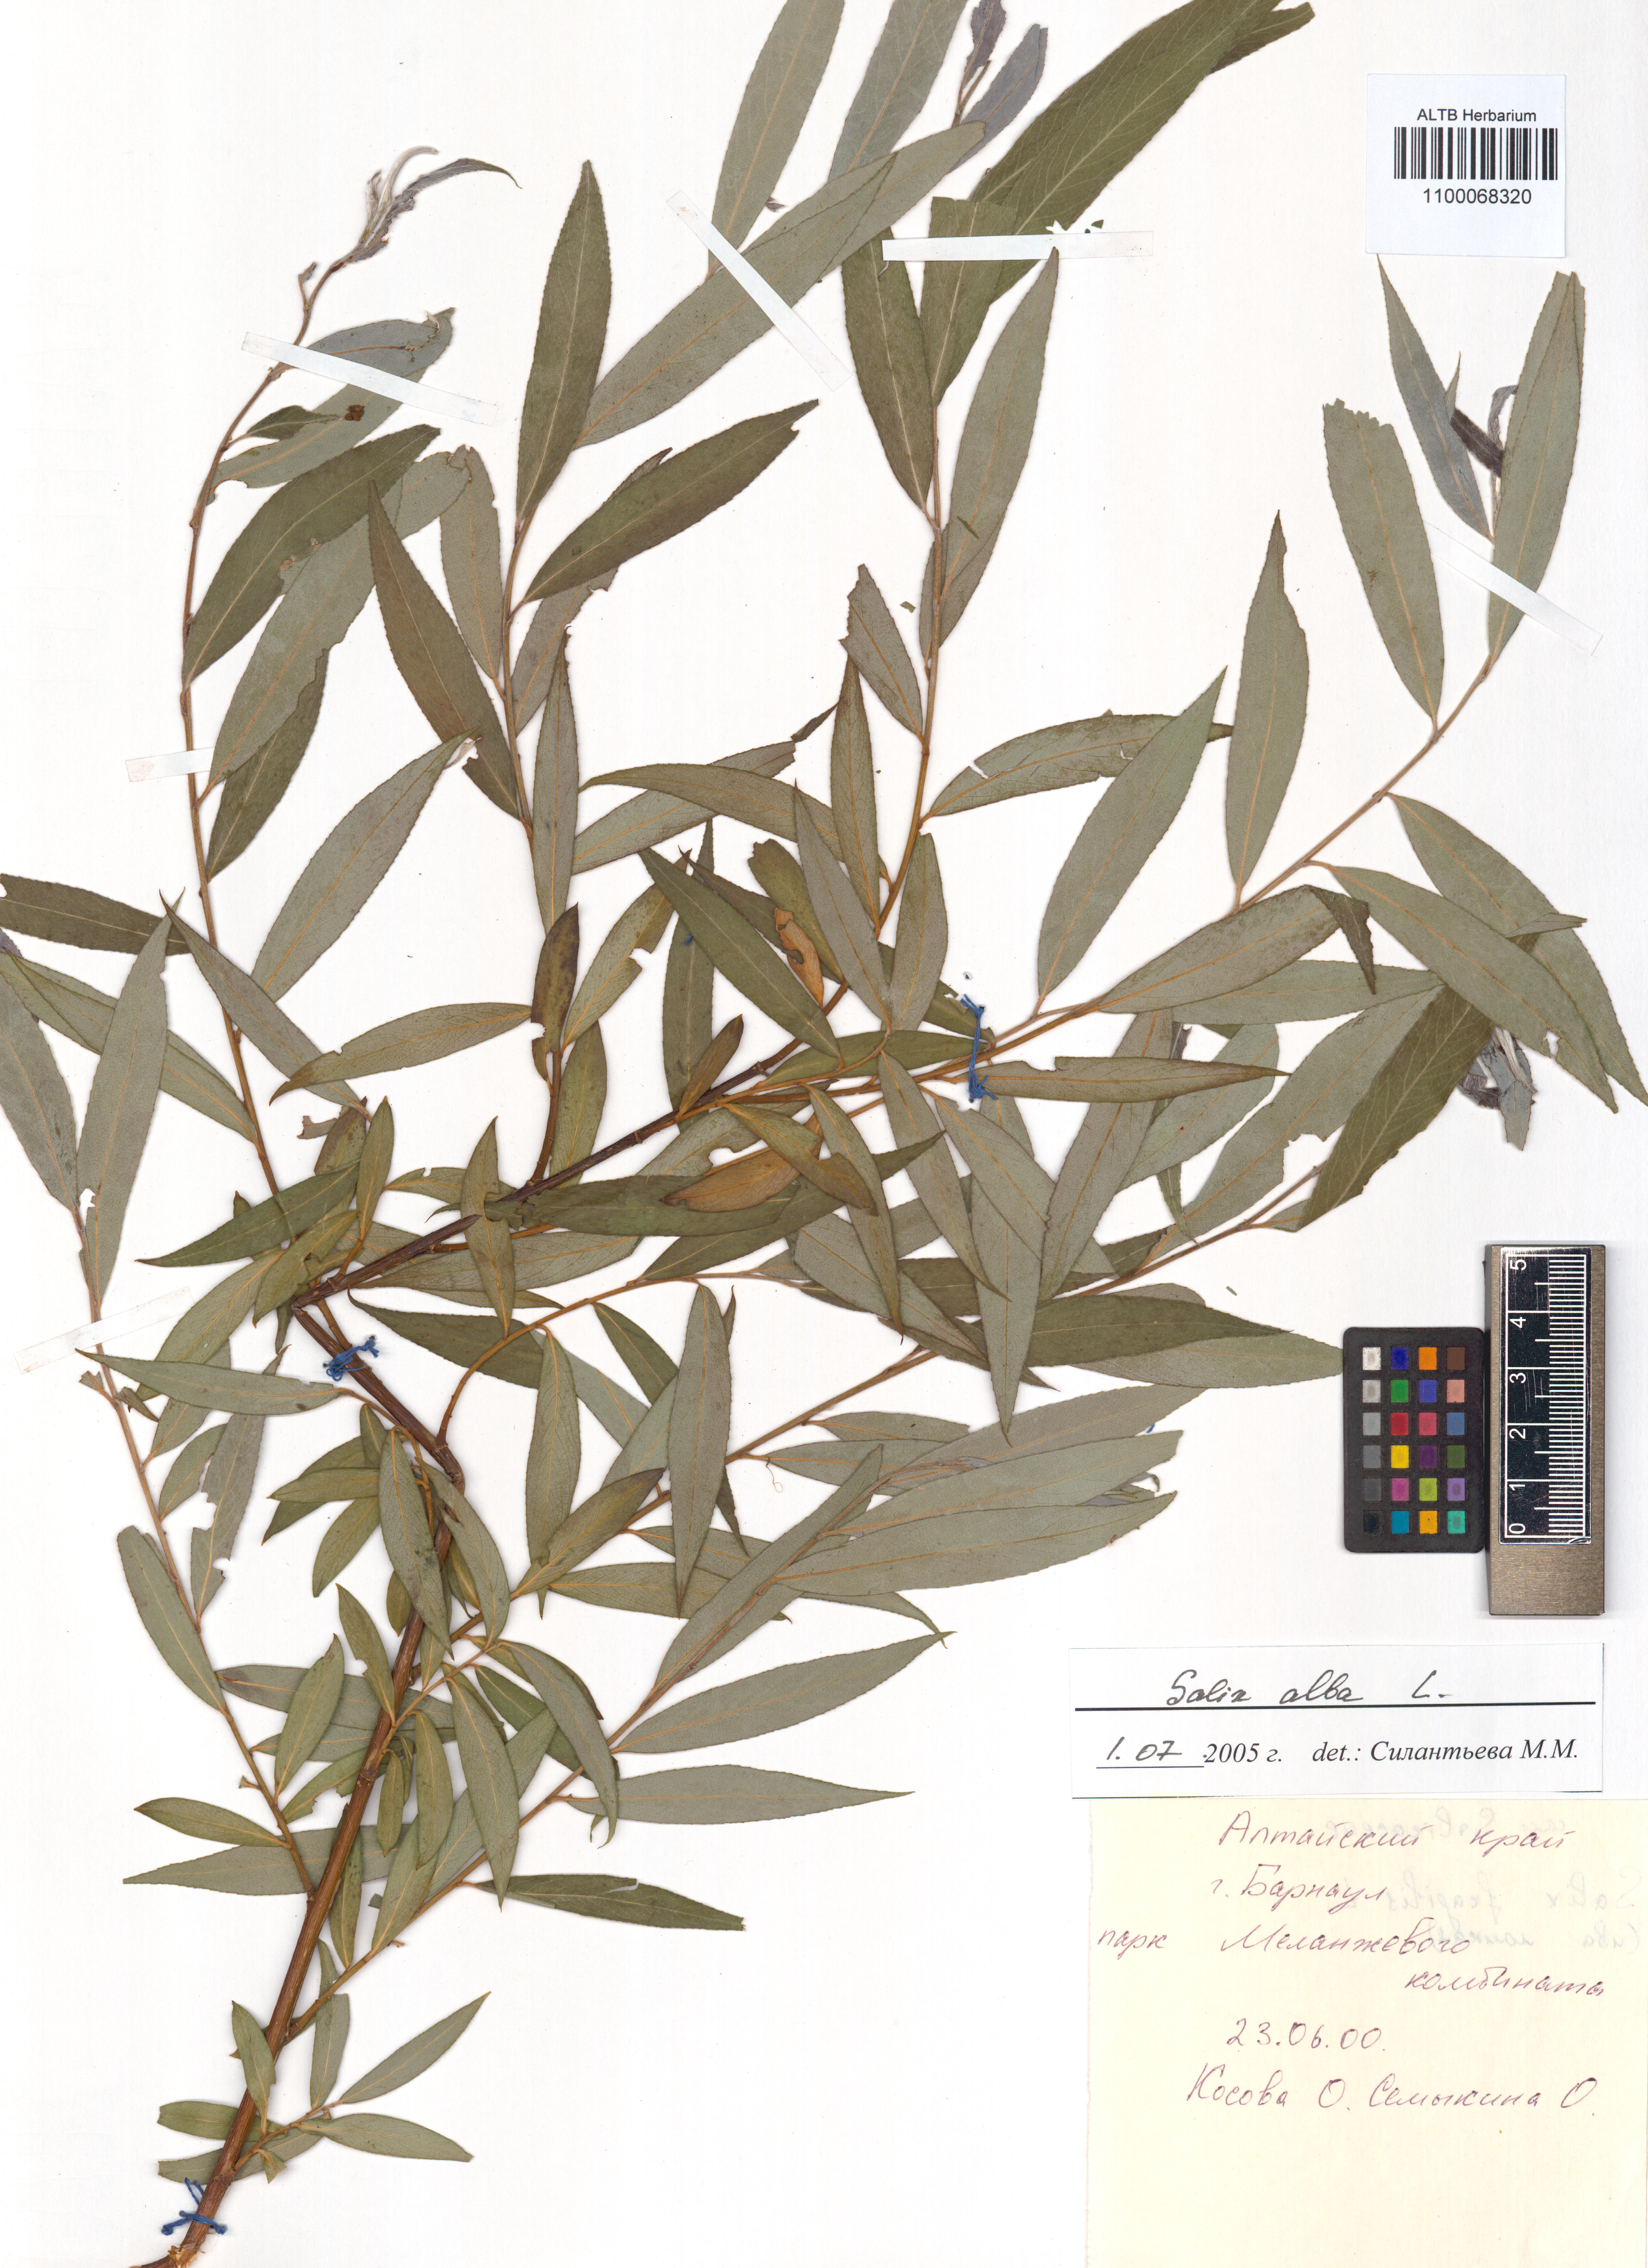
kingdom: Plantae
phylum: Tracheophyta
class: Magnoliopsida
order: Malpighiales
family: Salicaceae
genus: Salix
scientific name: Salix alba
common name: White willow
